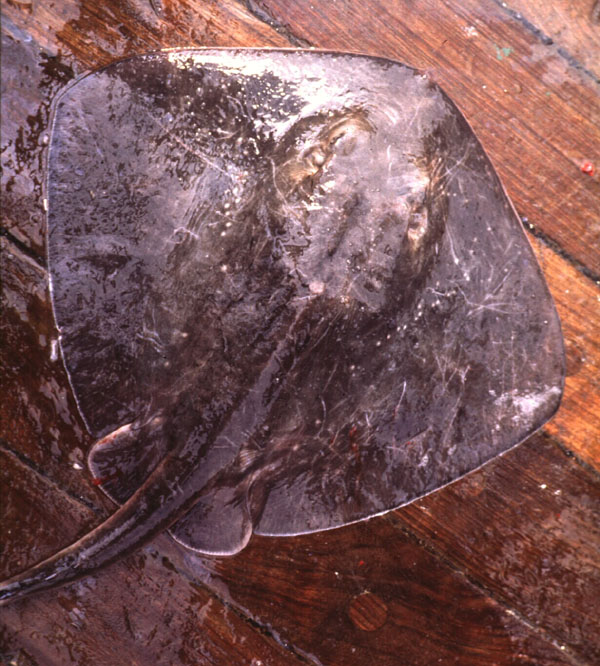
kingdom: Animalia
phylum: Chordata
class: Elasmobranchii
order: Myliobatiformes
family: Dasyatidae
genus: Bathytoshia
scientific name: Bathytoshia brevicaudata
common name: Short-tail stingray
